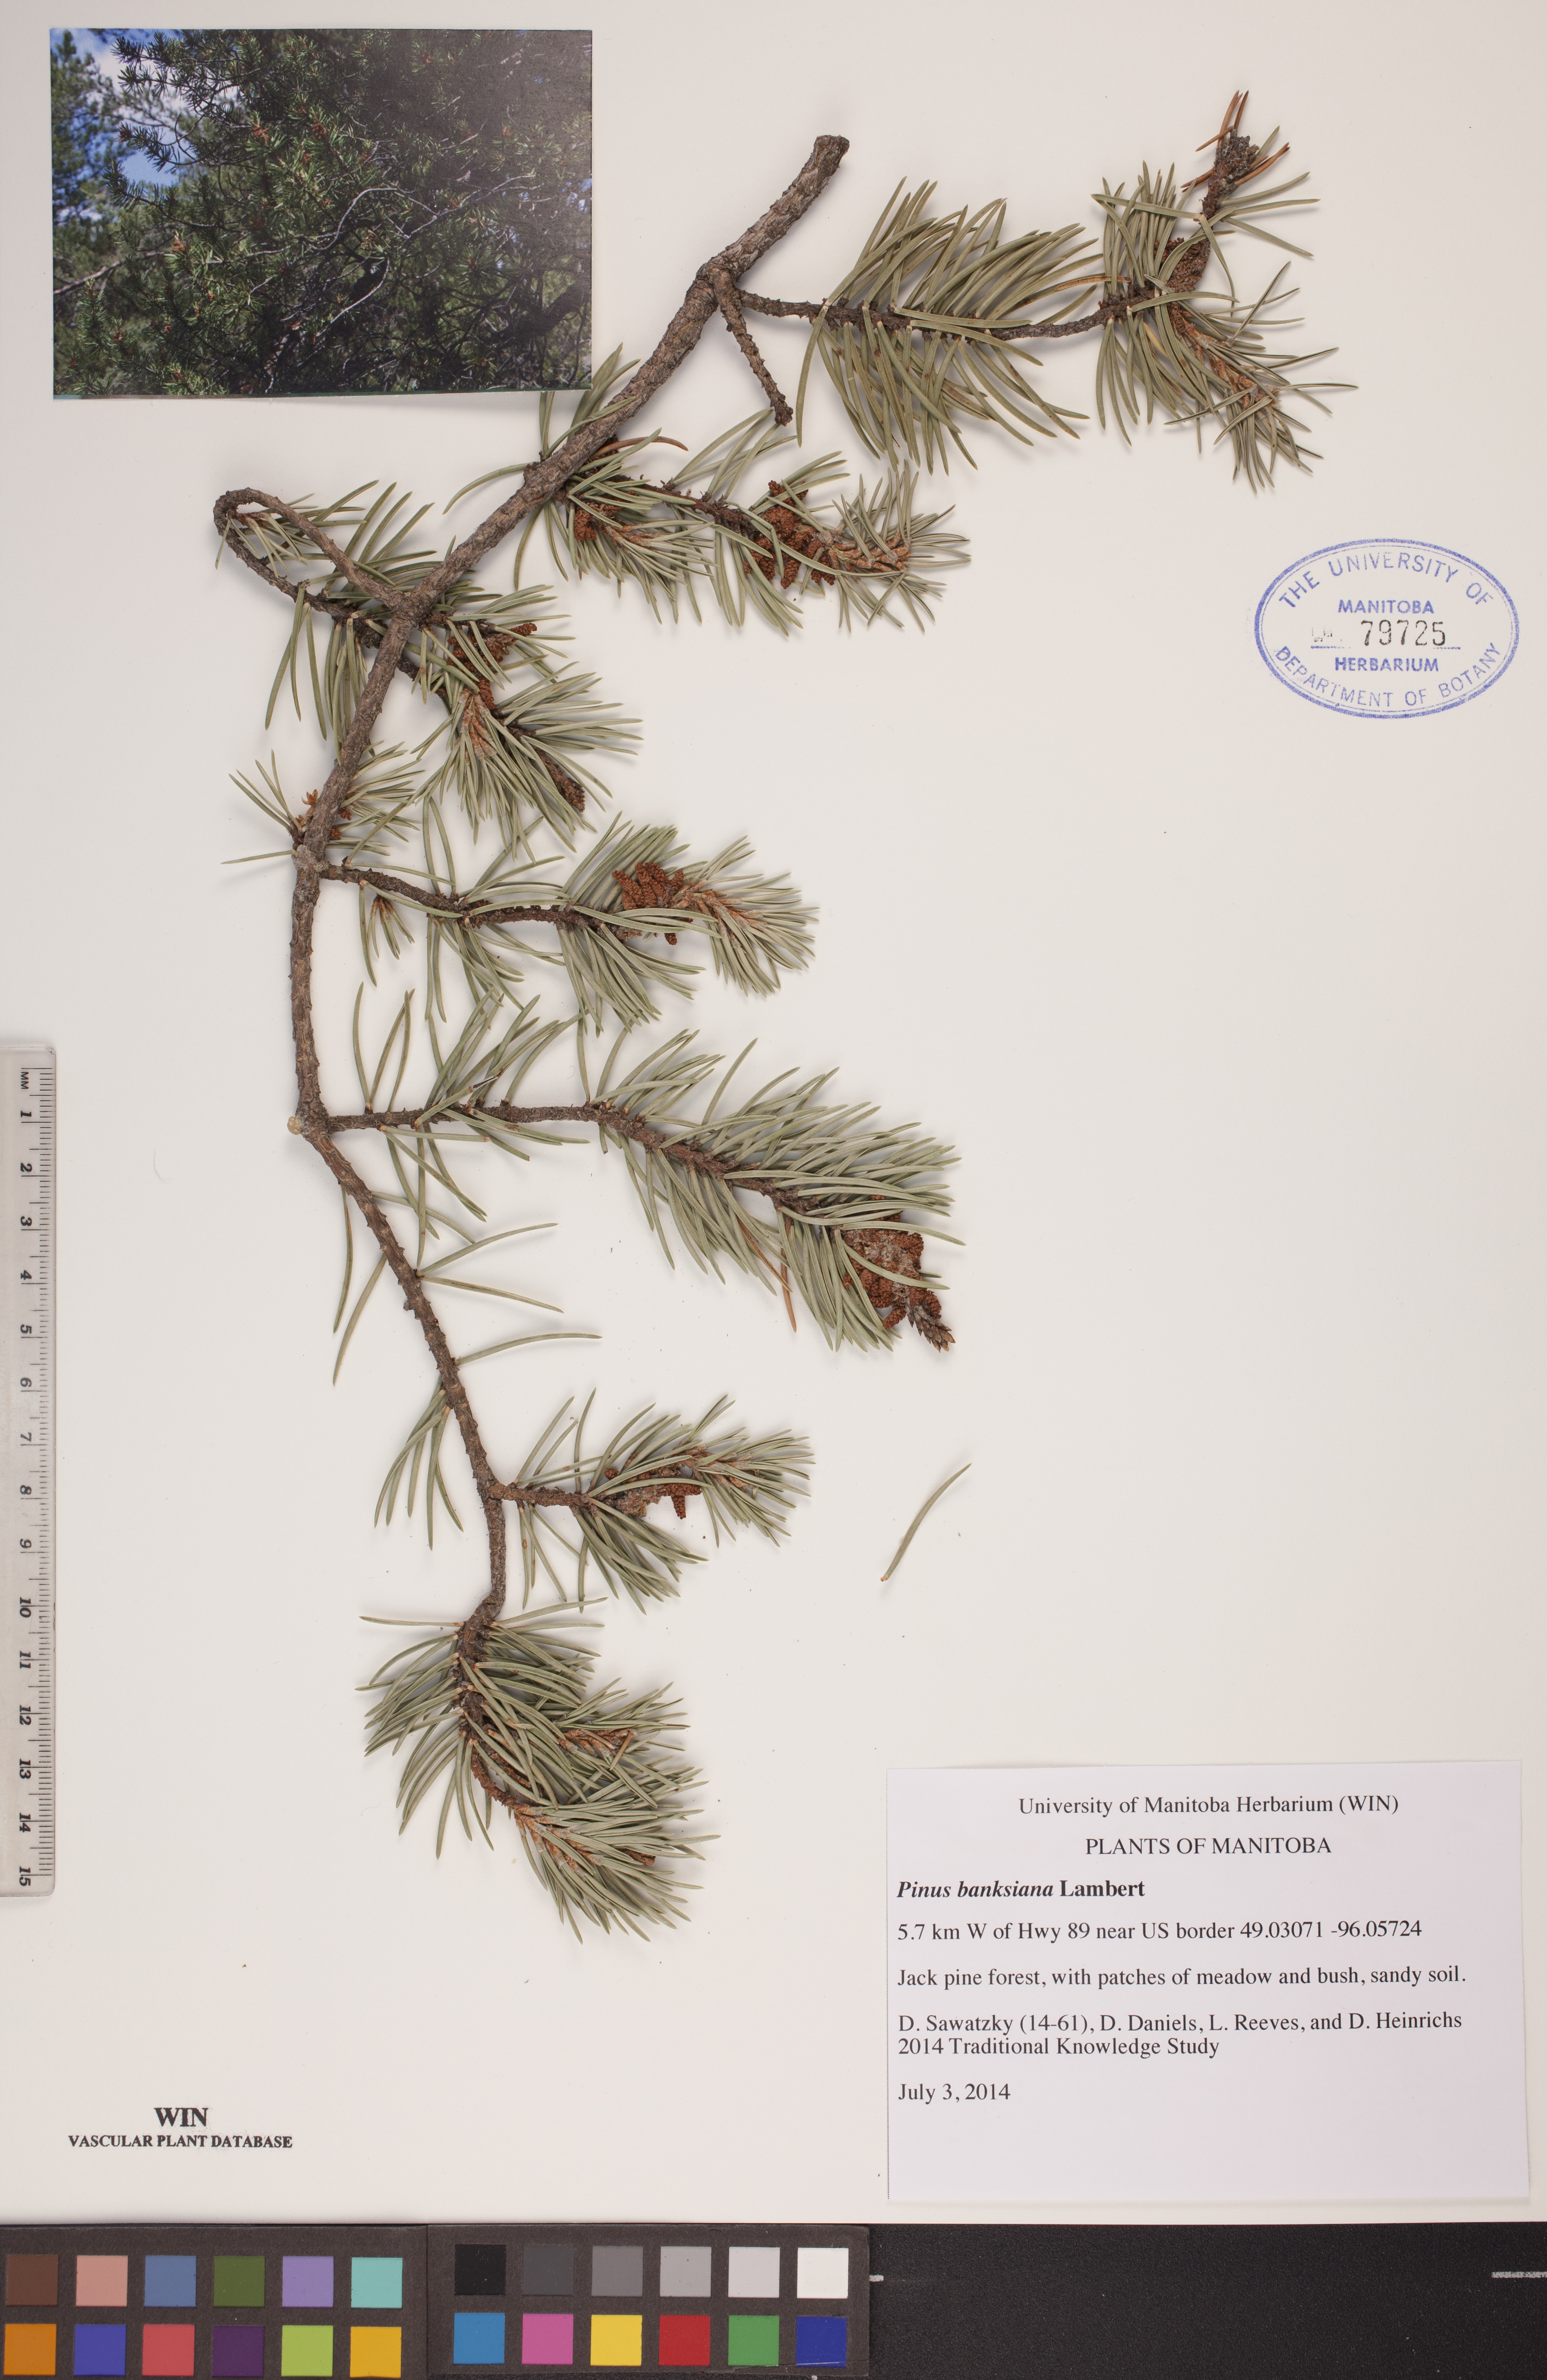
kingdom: Plantae
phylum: Tracheophyta
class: Pinopsida
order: Pinales
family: Pinaceae
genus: Pinus
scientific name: Pinus banksiana
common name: Jack pine
